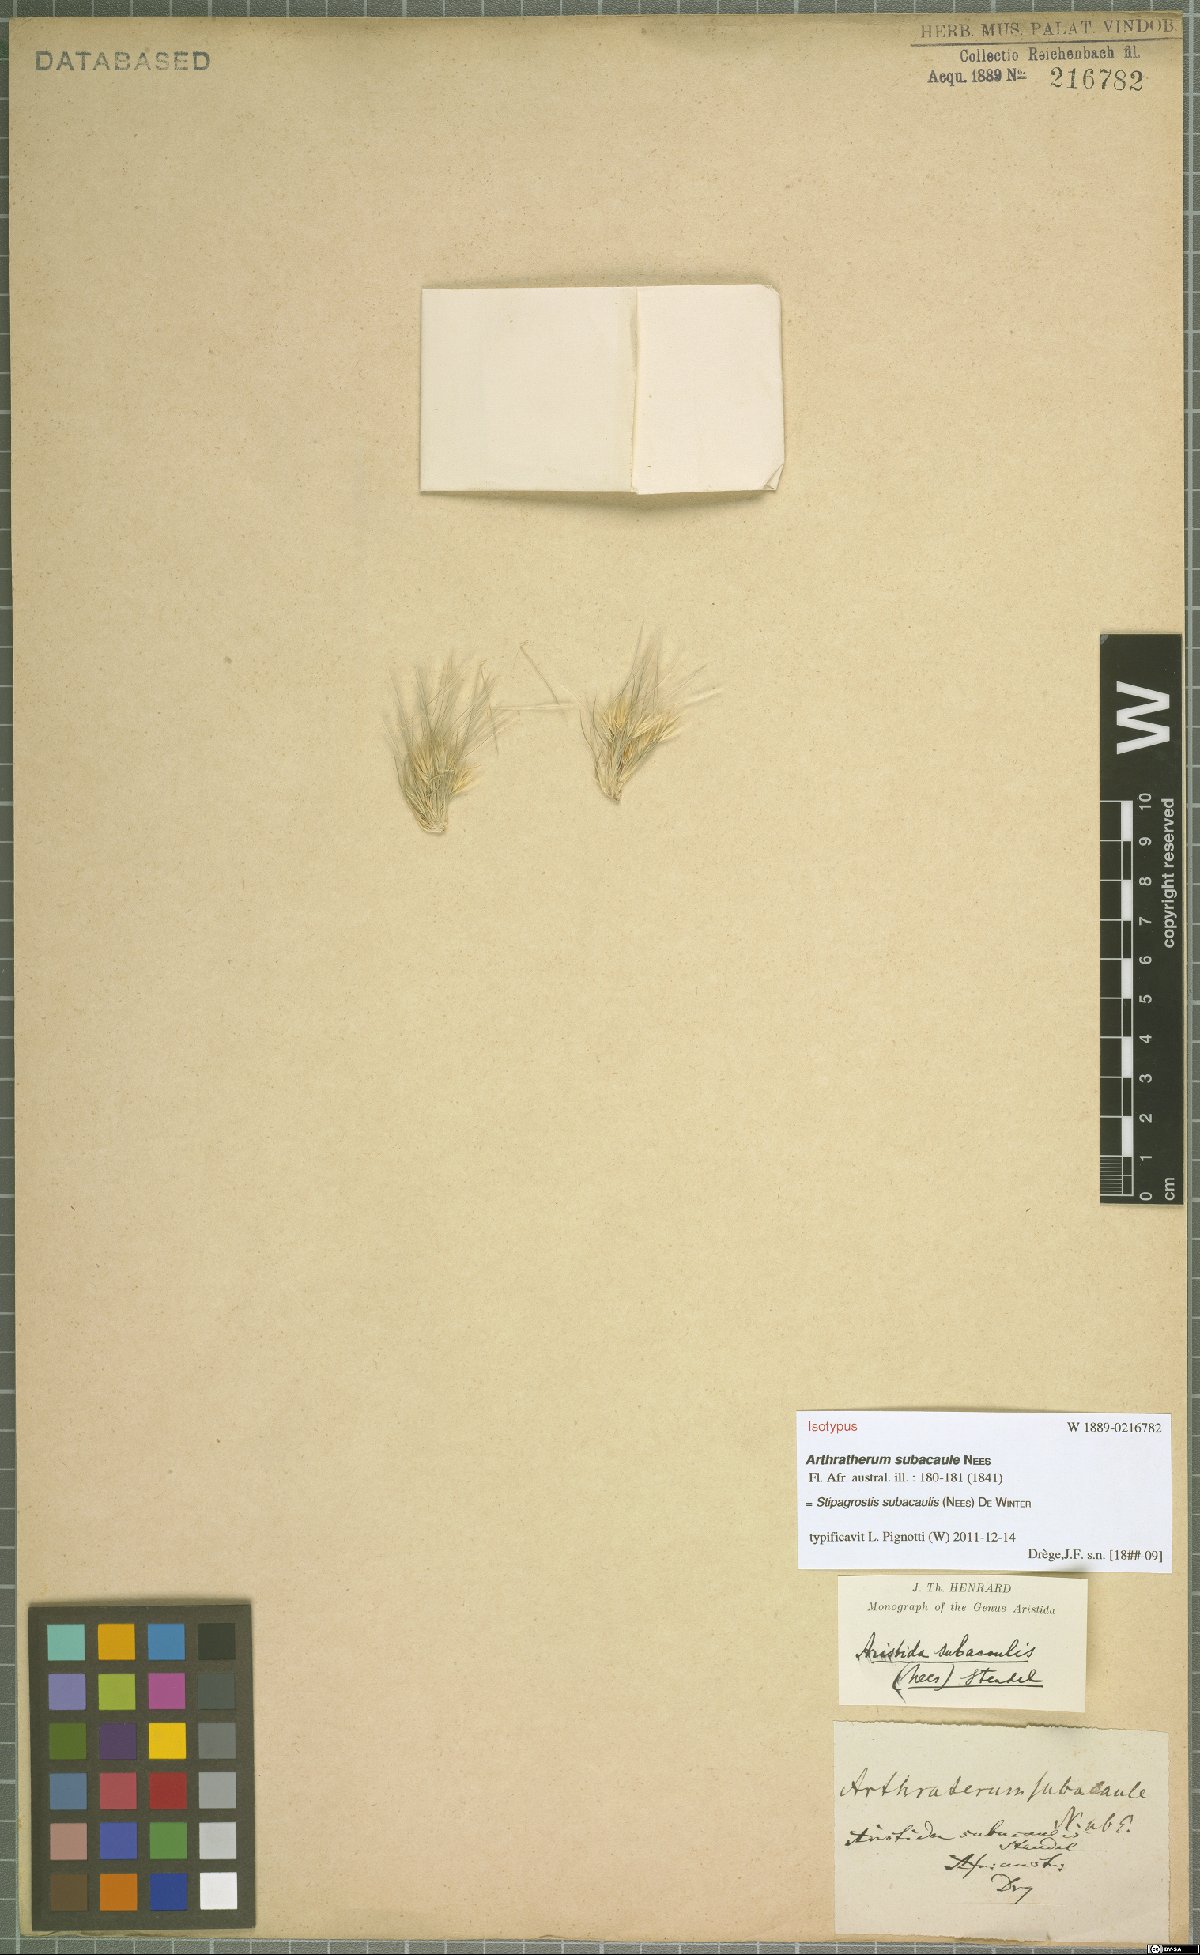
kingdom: Plantae
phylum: Tracheophyta
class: Liliopsida
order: Poales
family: Poaceae
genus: Stipagrostis
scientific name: Stipagrostis subacaulis
